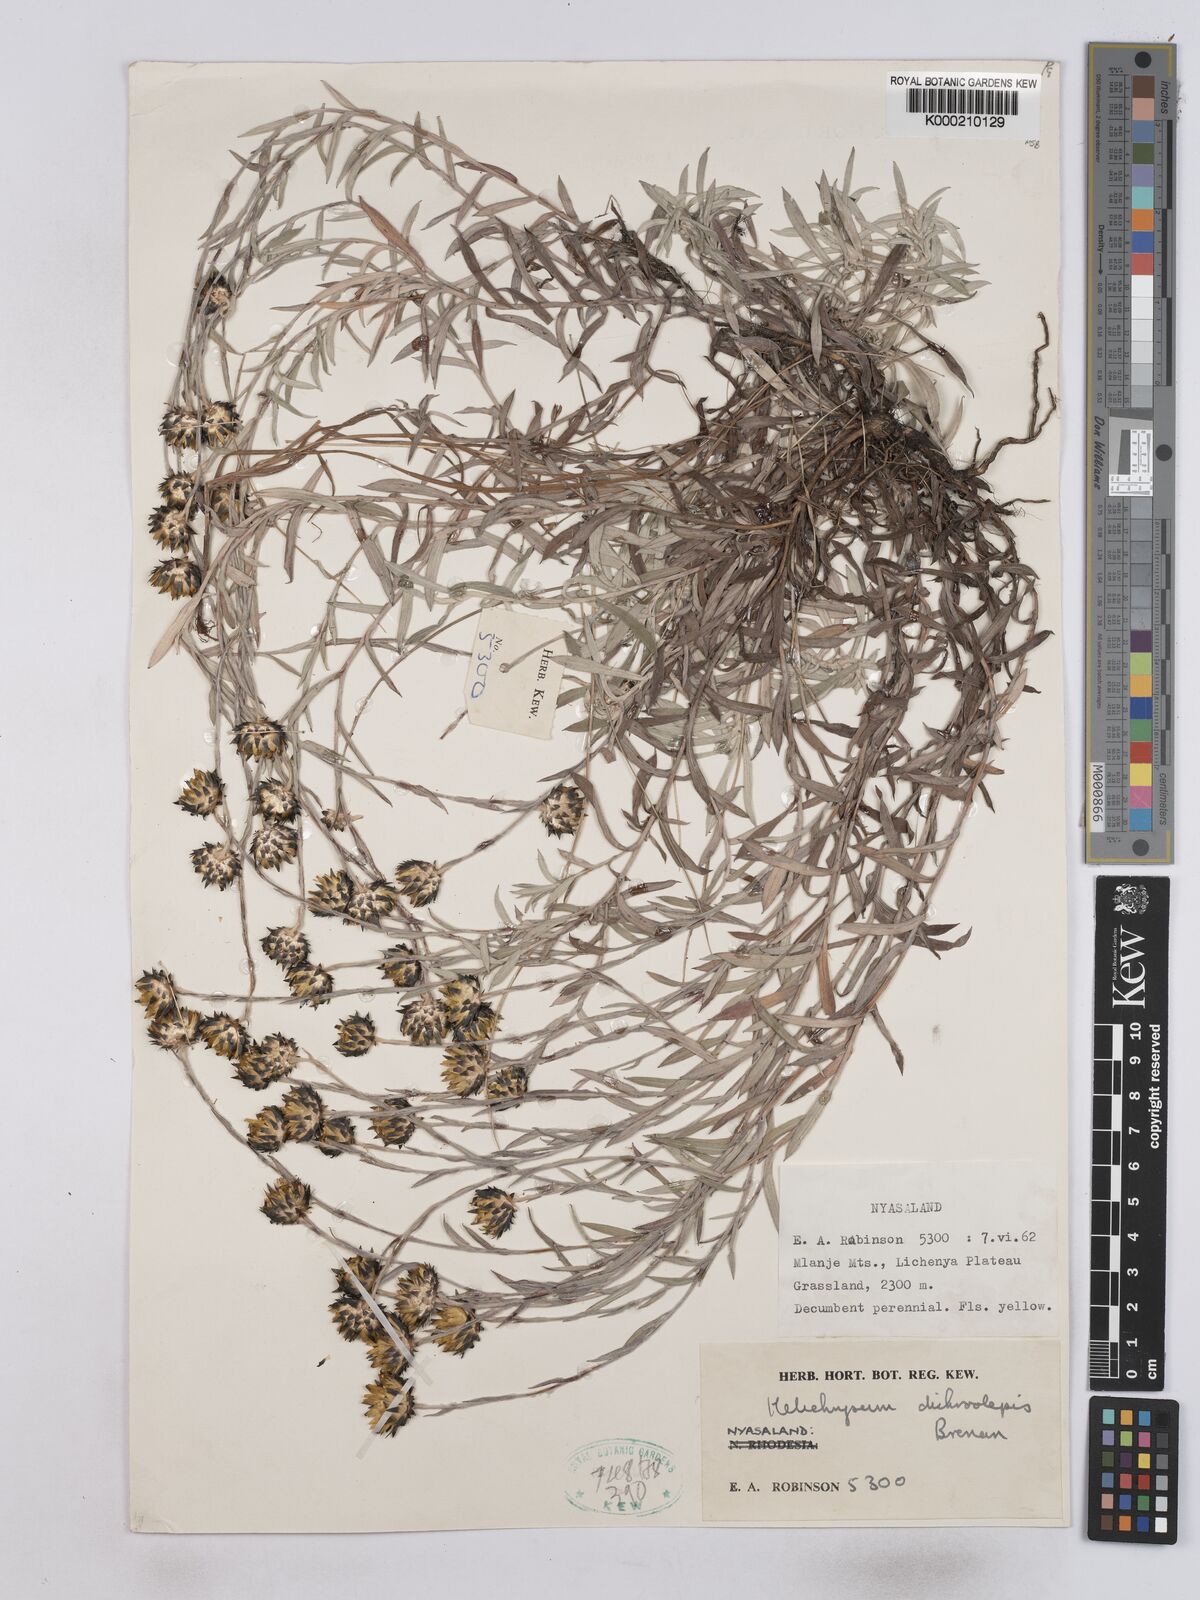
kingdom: Plantae
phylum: Tracheophyta
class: Magnoliopsida
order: Asterales
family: Asteraceae
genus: Helichrysum
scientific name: Helichrysum
